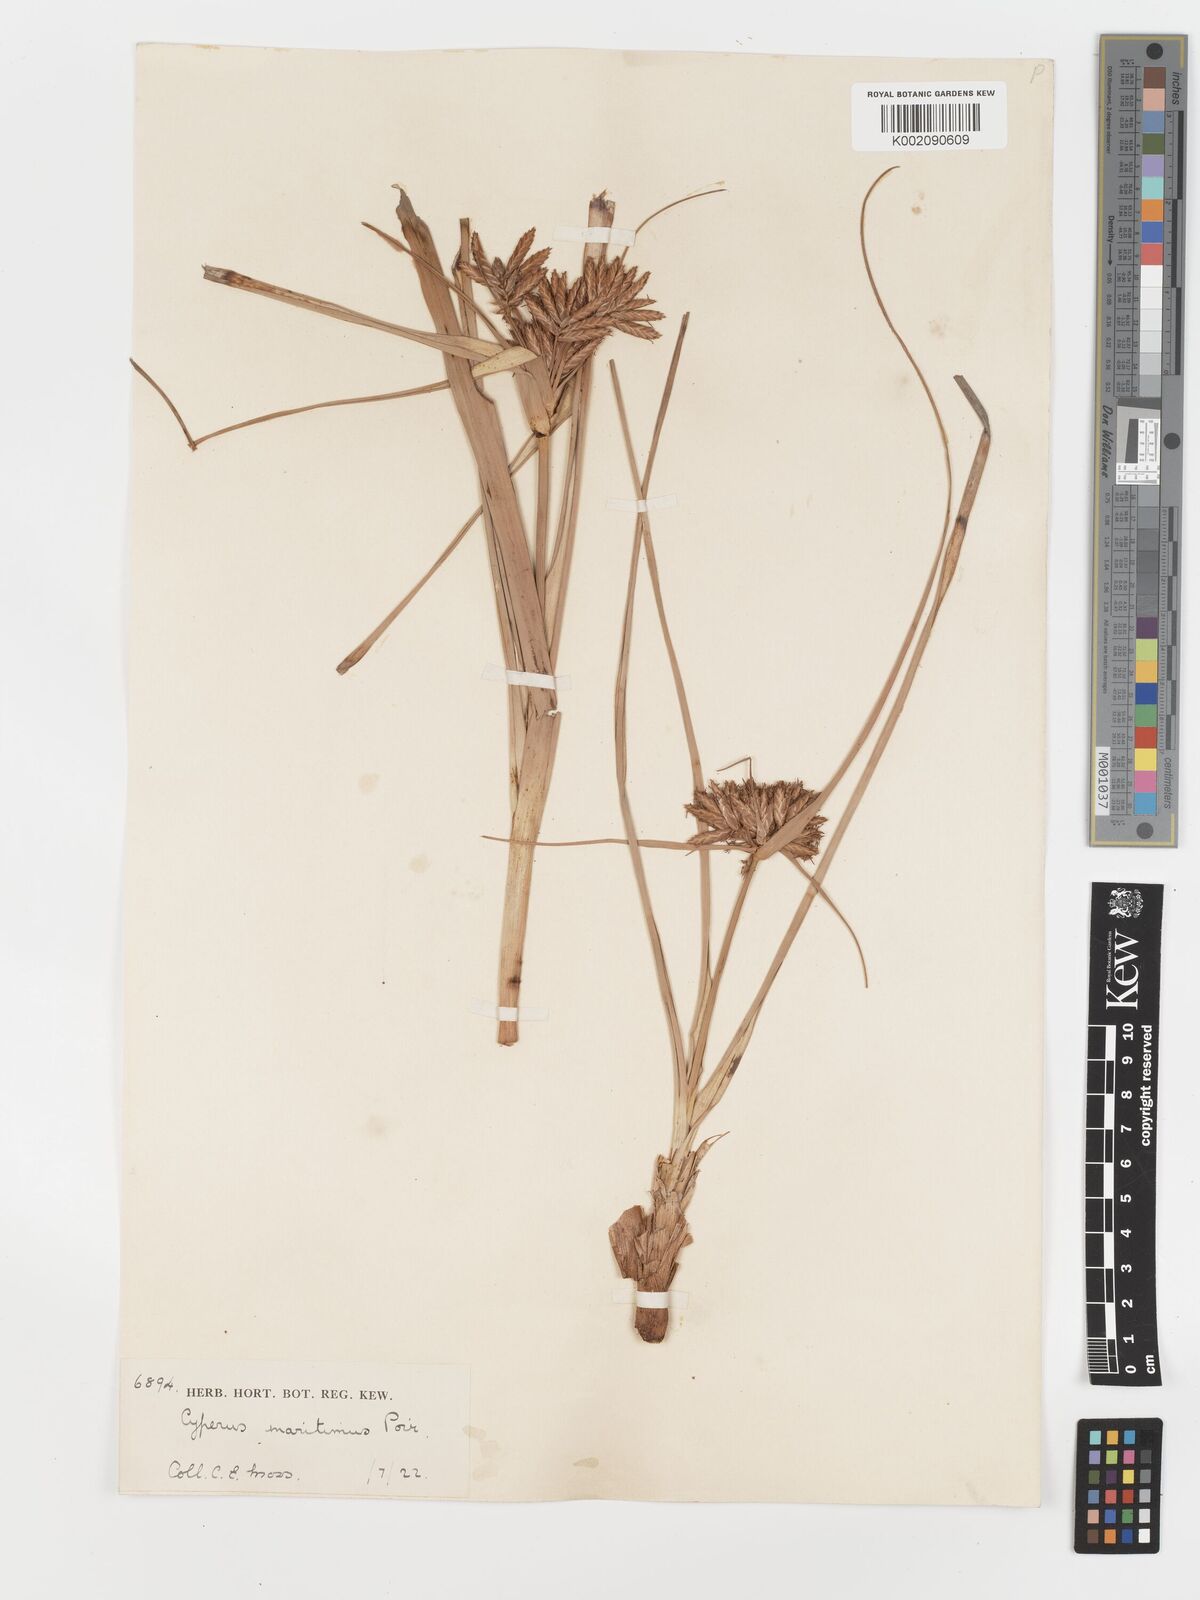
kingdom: Plantae
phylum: Tracheophyta
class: Liliopsida
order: Poales
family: Cyperaceae
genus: Cyperus
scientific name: Cyperus crassipes
